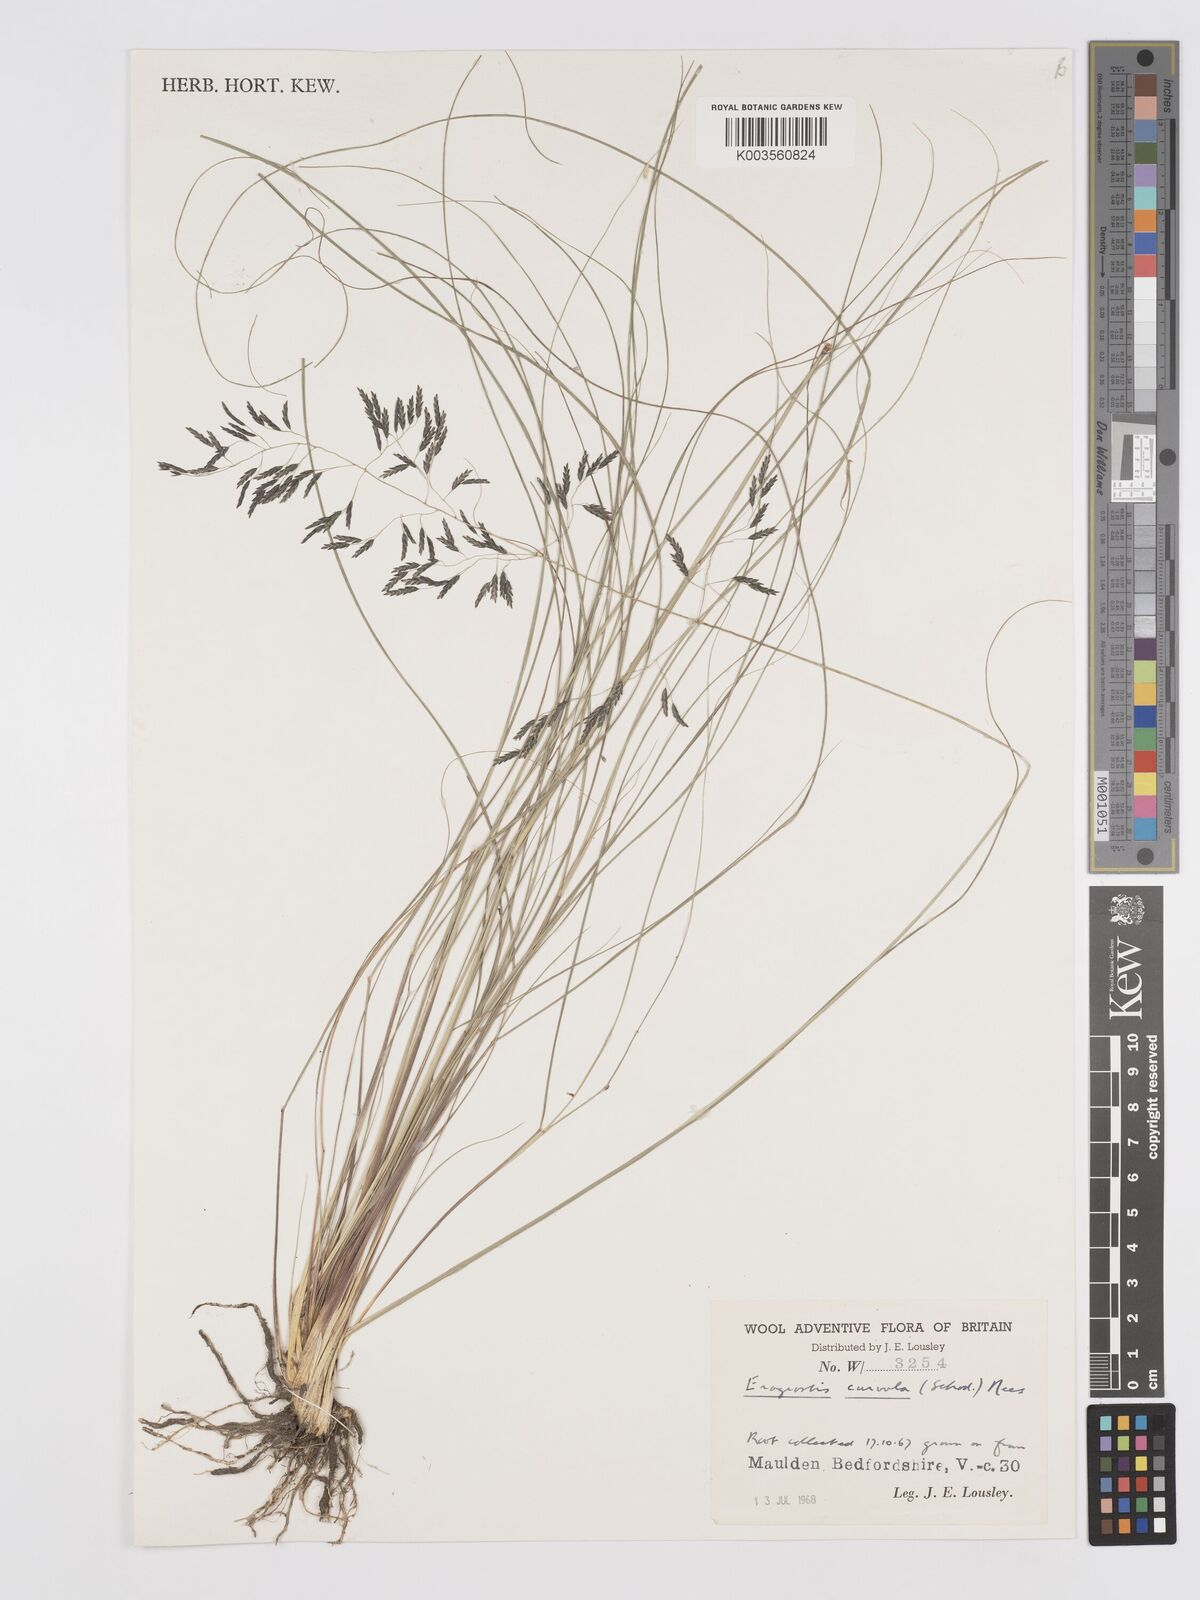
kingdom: Plantae
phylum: Tracheophyta
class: Liliopsida
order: Poales
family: Poaceae
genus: Eragrostis
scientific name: Eragrostis curvula
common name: African love-grass
